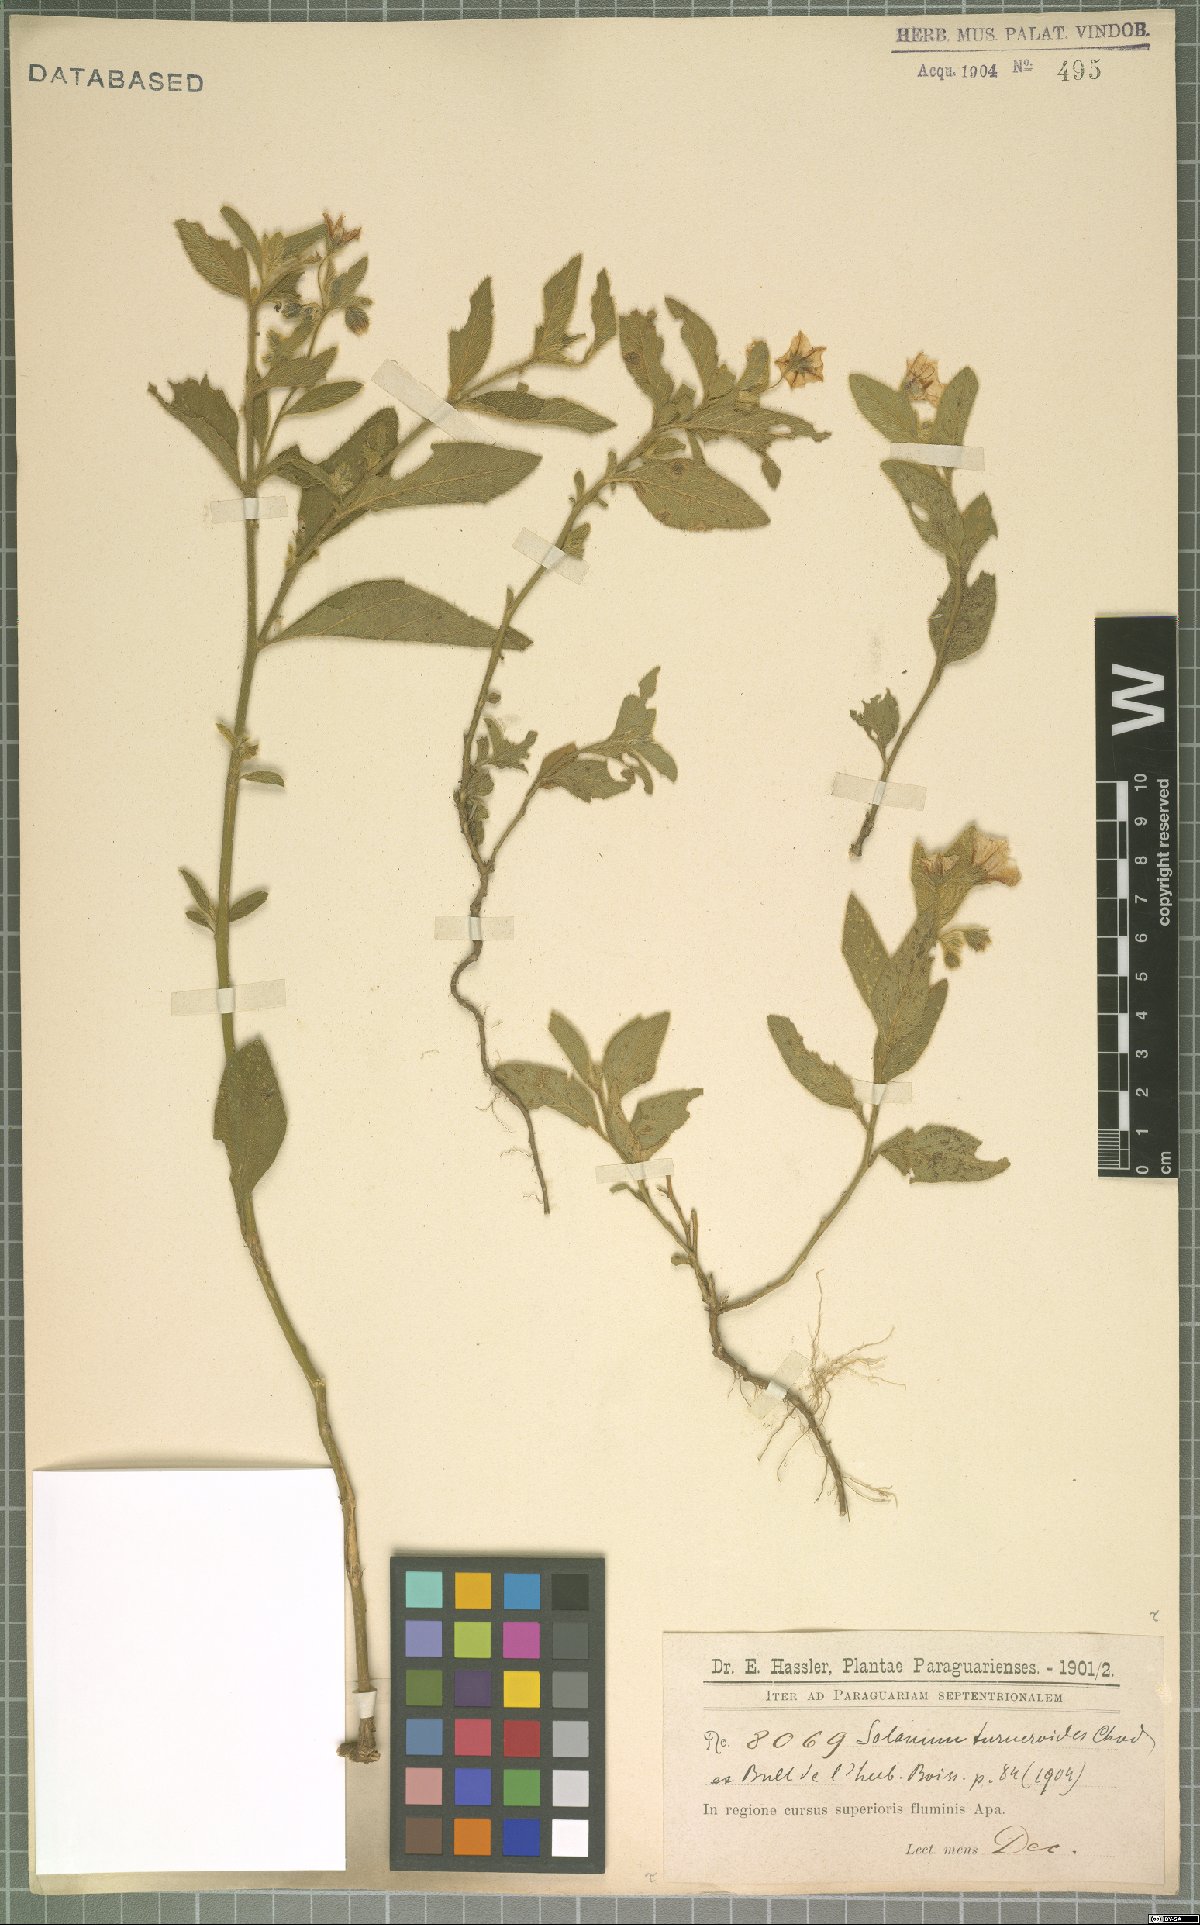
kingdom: Plantae
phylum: Tracheophyta
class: Magnoliopsida
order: Solanales
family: Solanaceae
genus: Solanum
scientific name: Solanum turneroides
